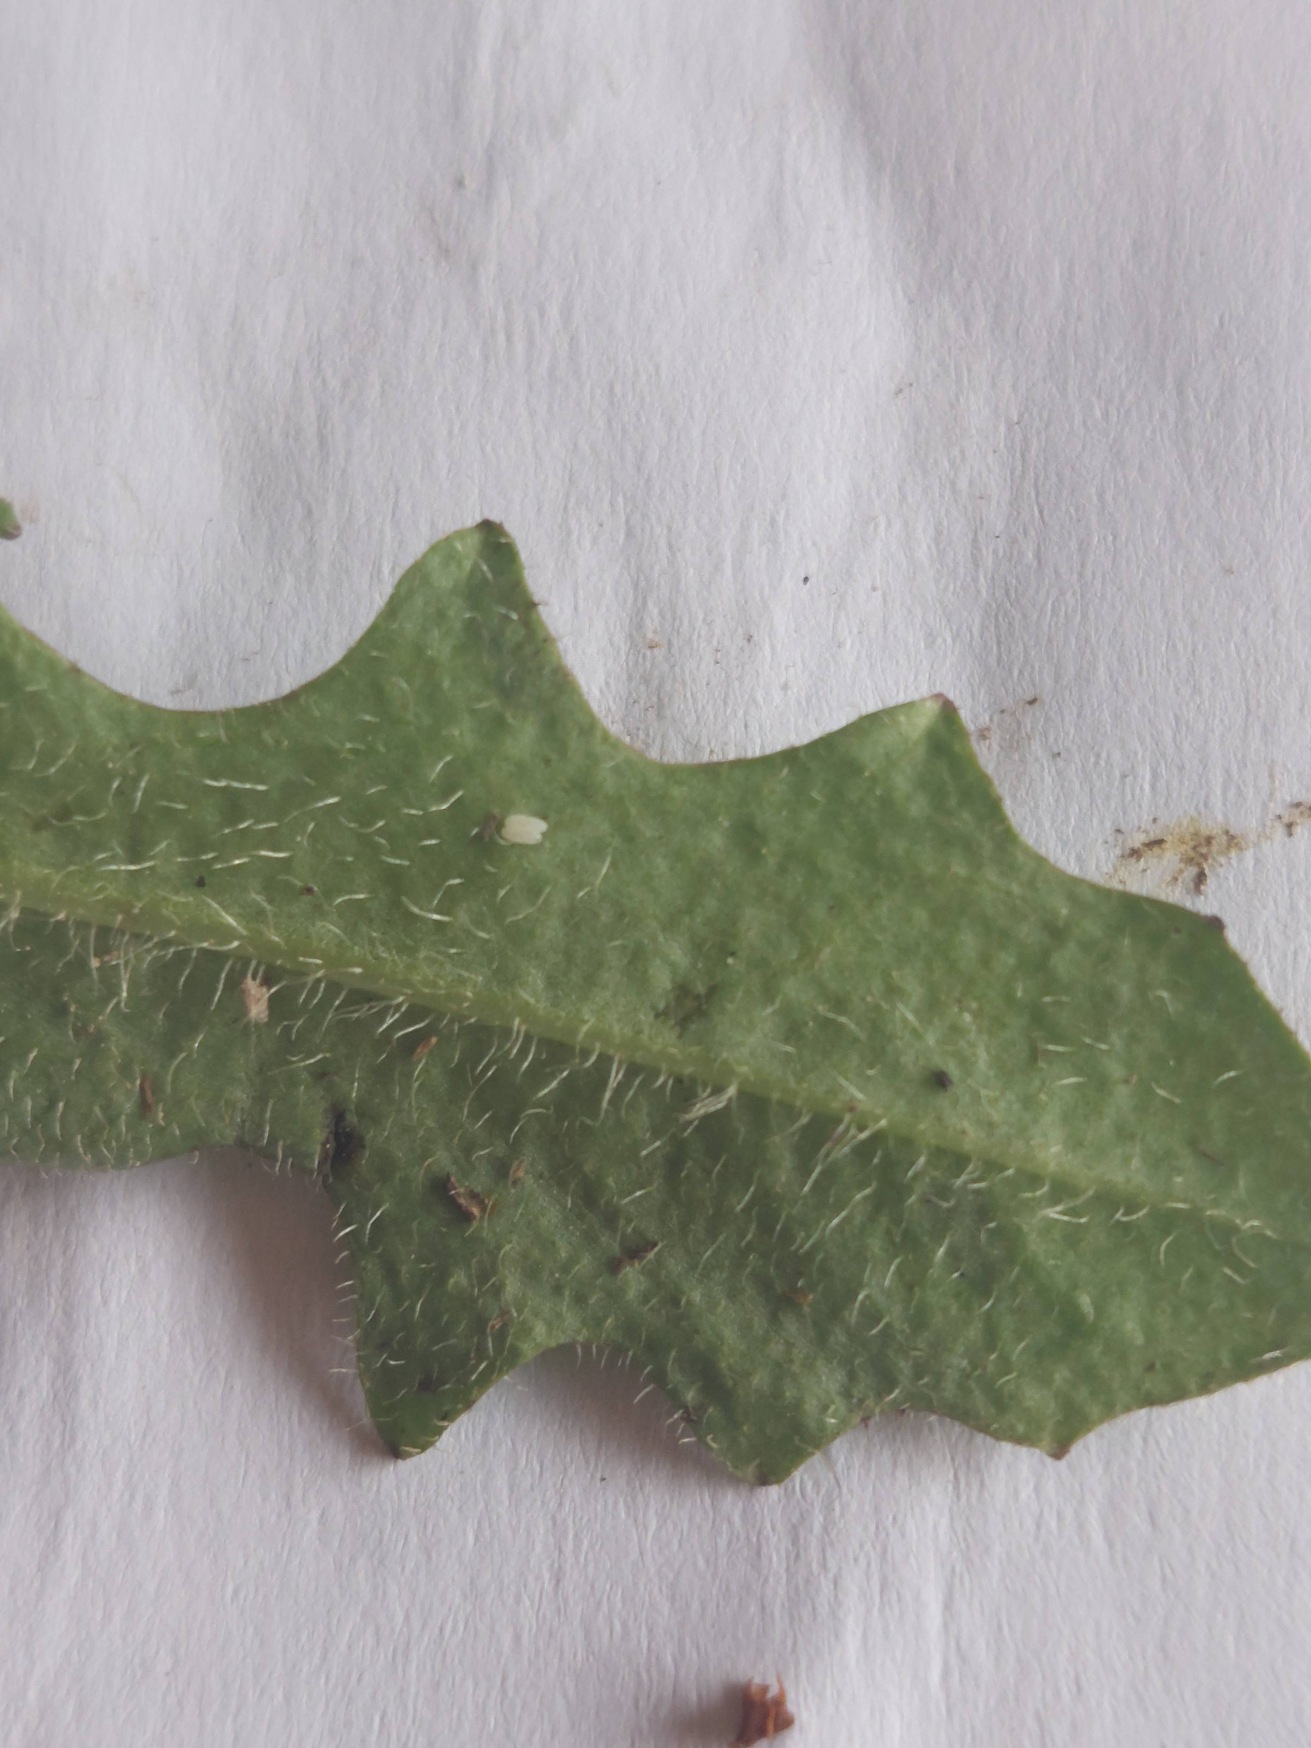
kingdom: Plantae
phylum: Tracheophyta
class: Magnoliopsida
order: Asterales
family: Asteraceae
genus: Hypochaeris
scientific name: Hypochaeris radicata
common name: Almindelig kongepen
